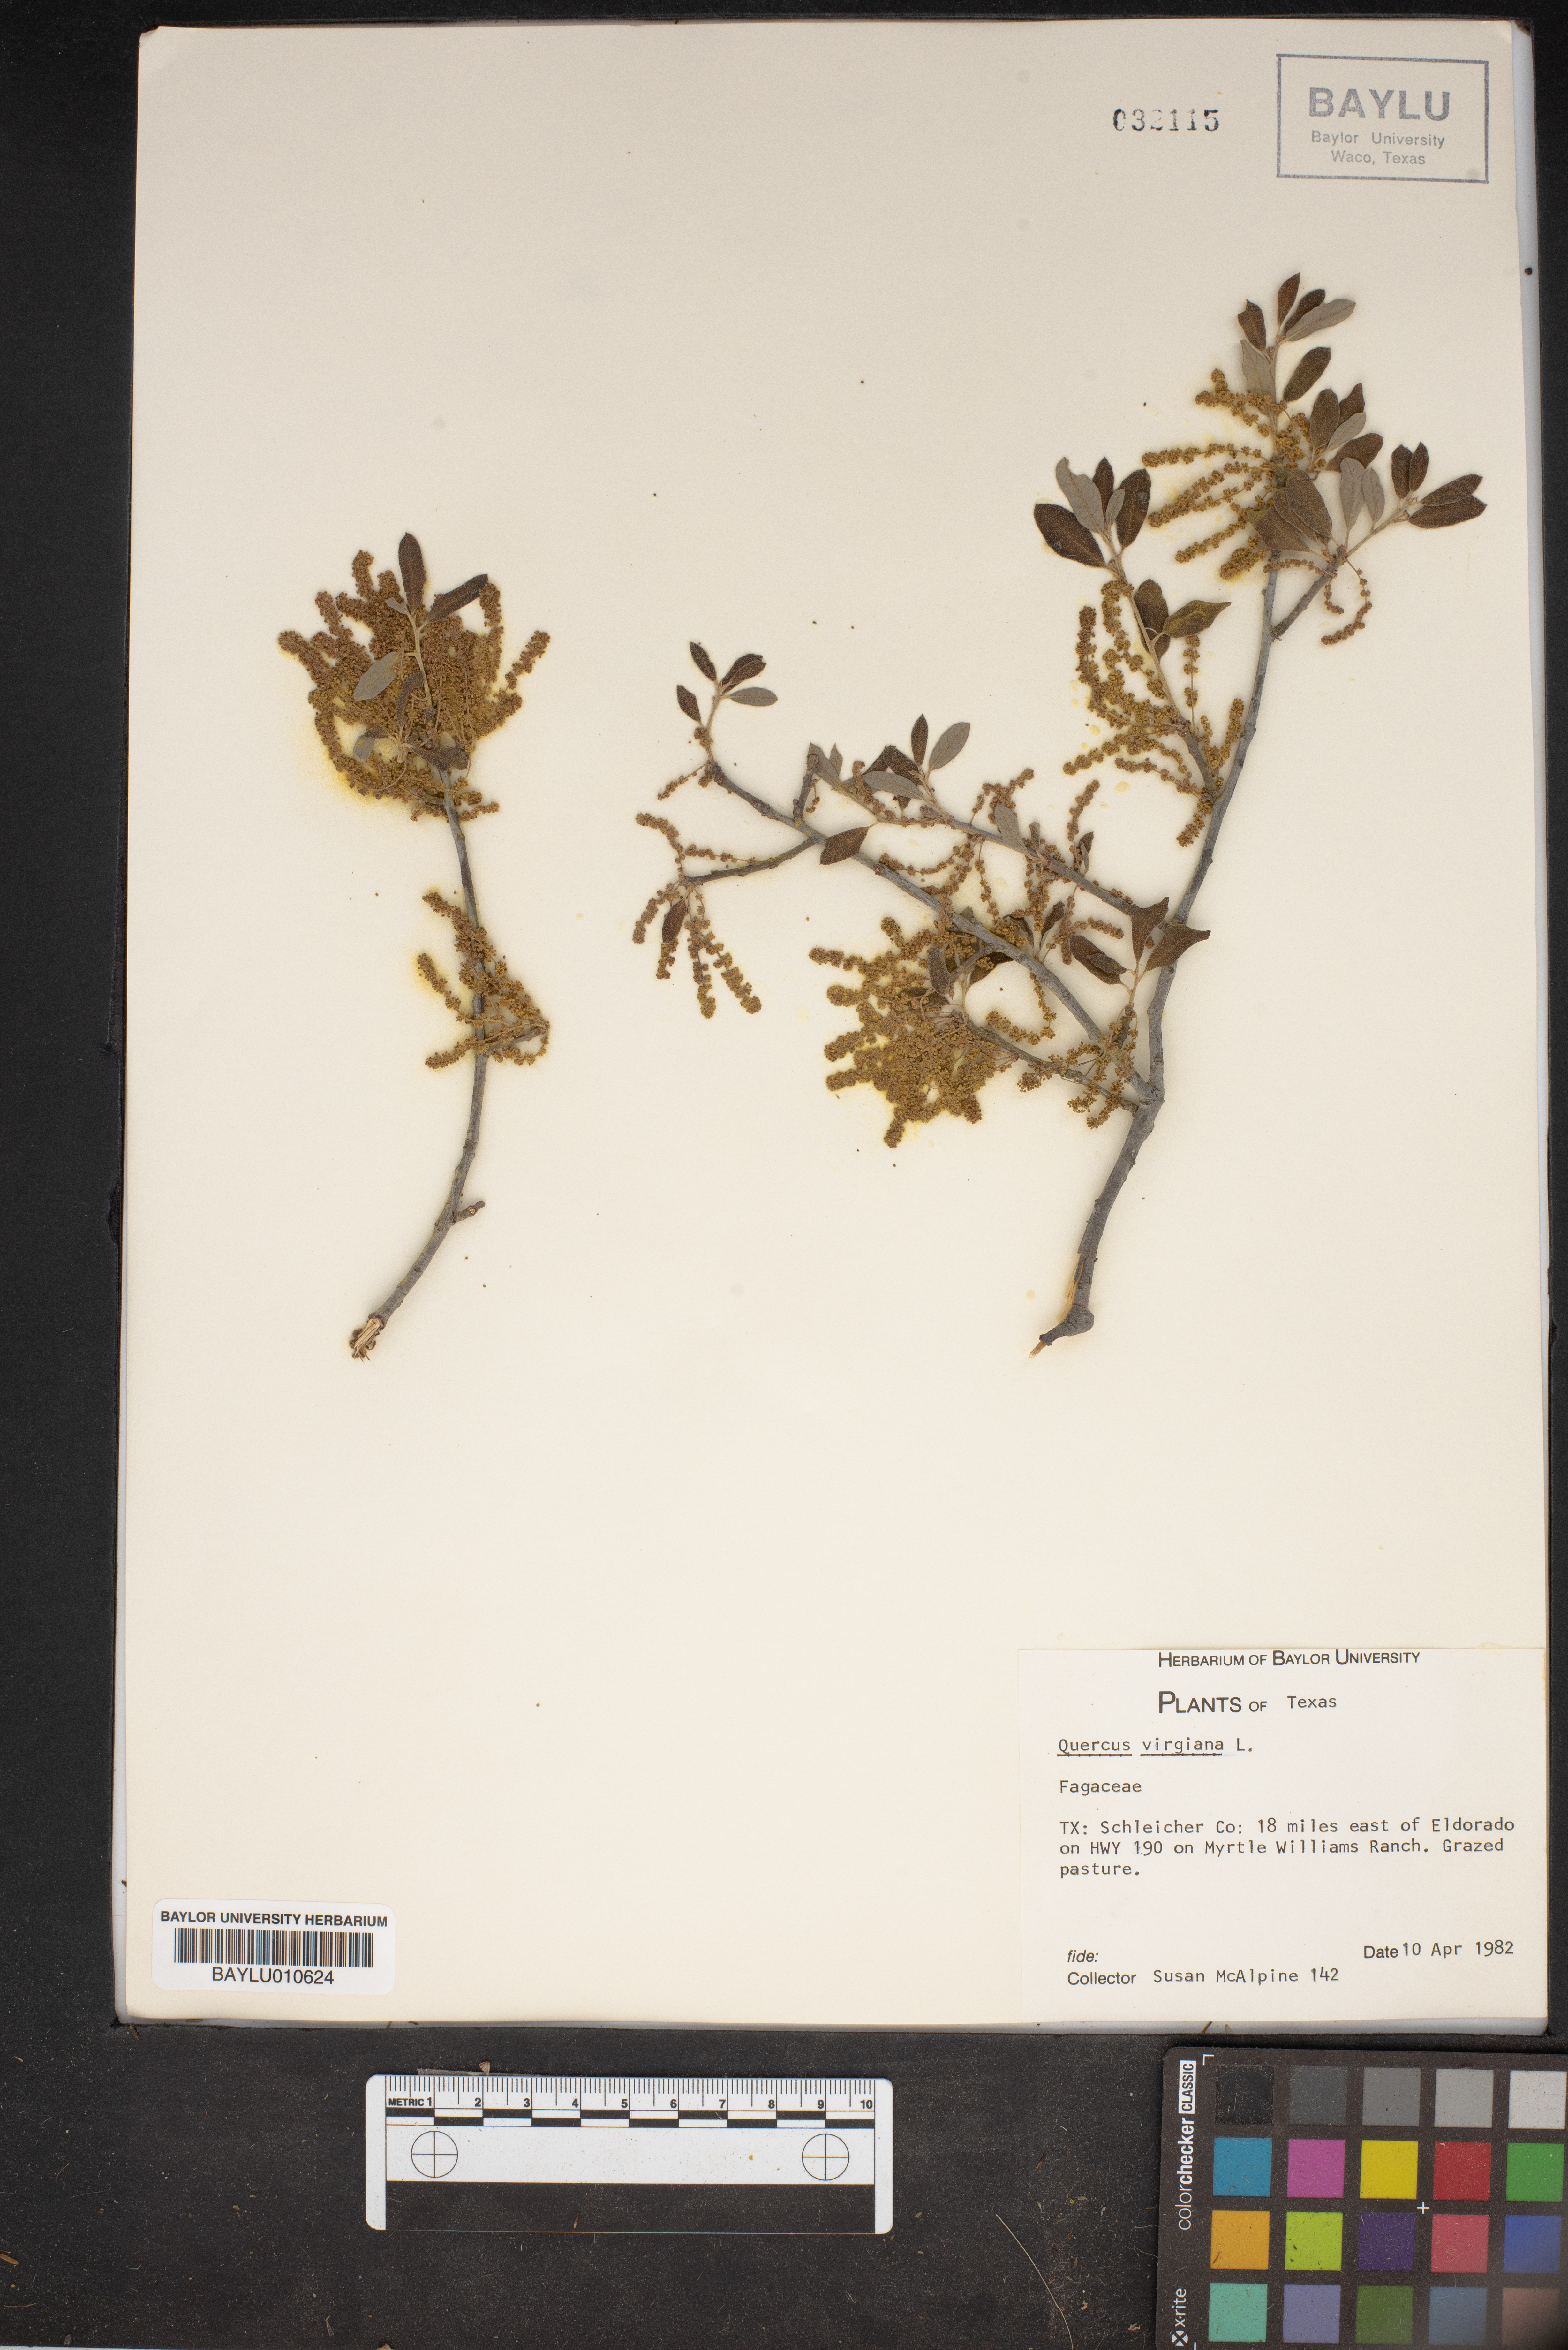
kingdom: Plantae
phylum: Tracheophyta
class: Magnoliopsida
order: Fagales
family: Fagaceae
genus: Quercus
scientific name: Quercus virginiana
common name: Southern live oak
